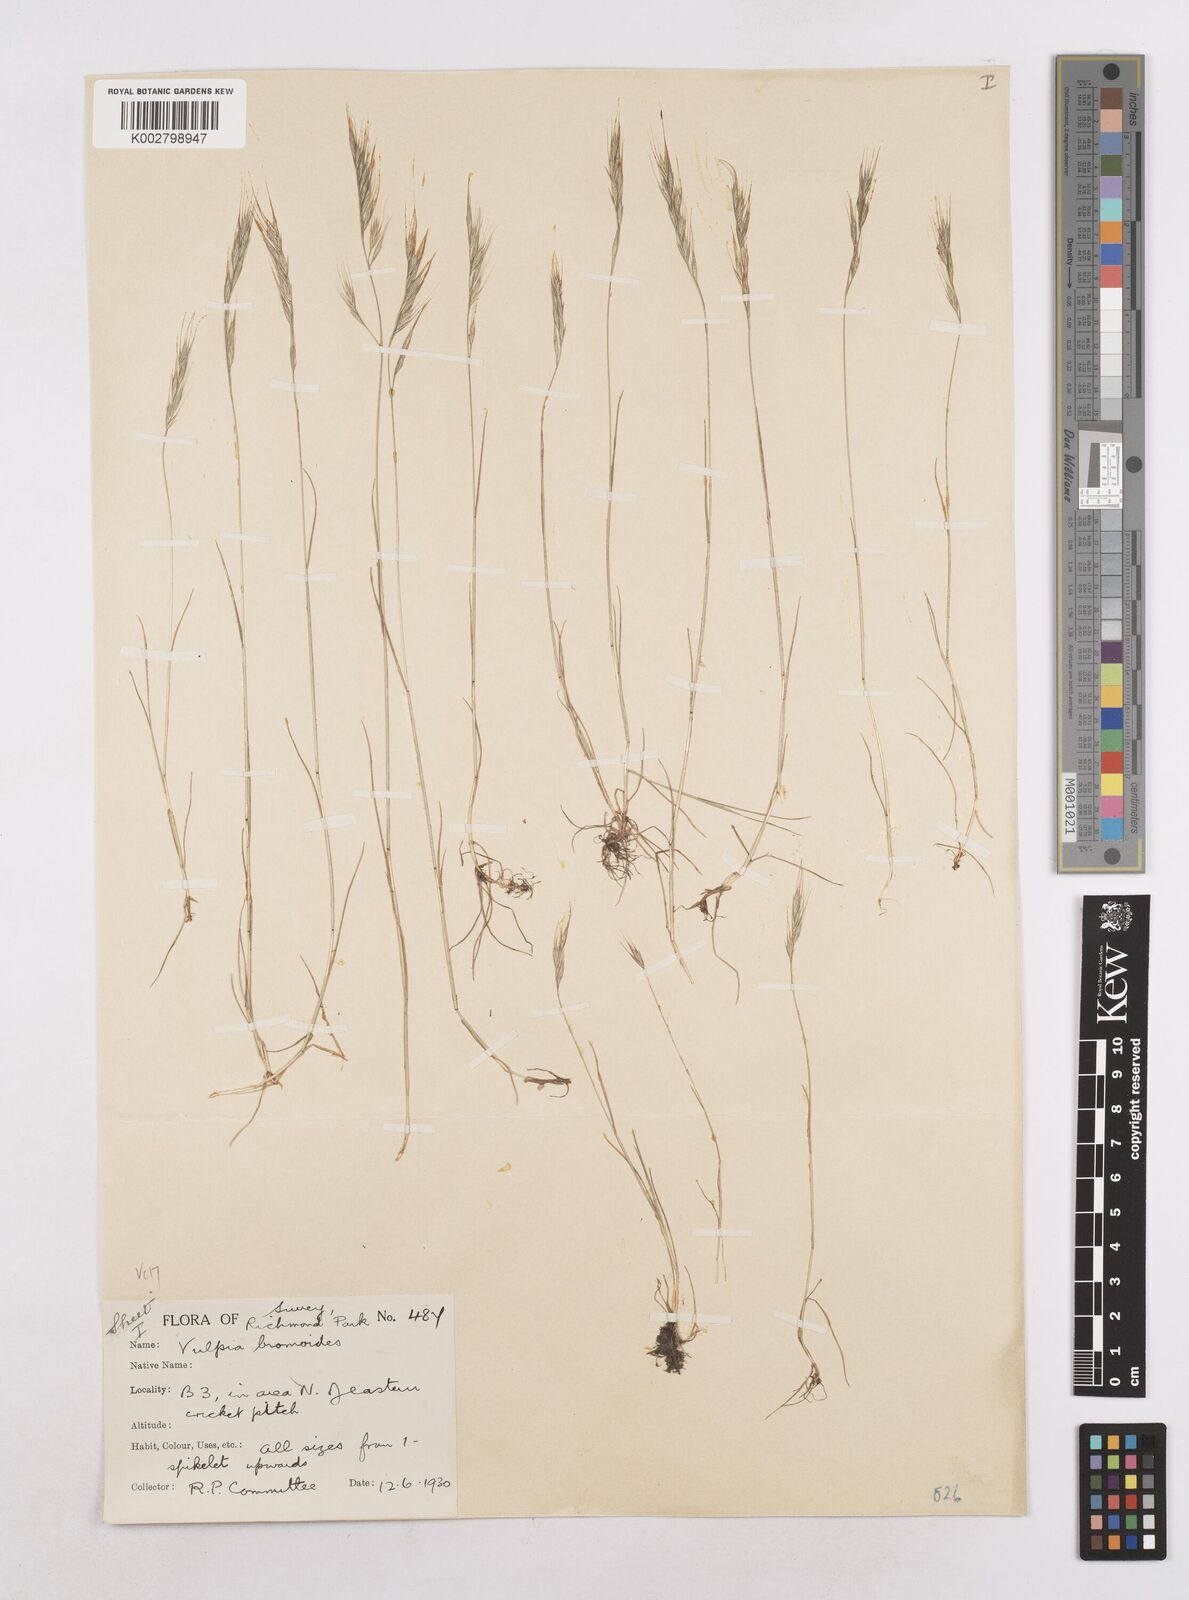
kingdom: Plantae
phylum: Tracheophyta
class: Liliopsida
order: Poales
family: Poaceae
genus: Festuca
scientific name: Festuca bromoides
